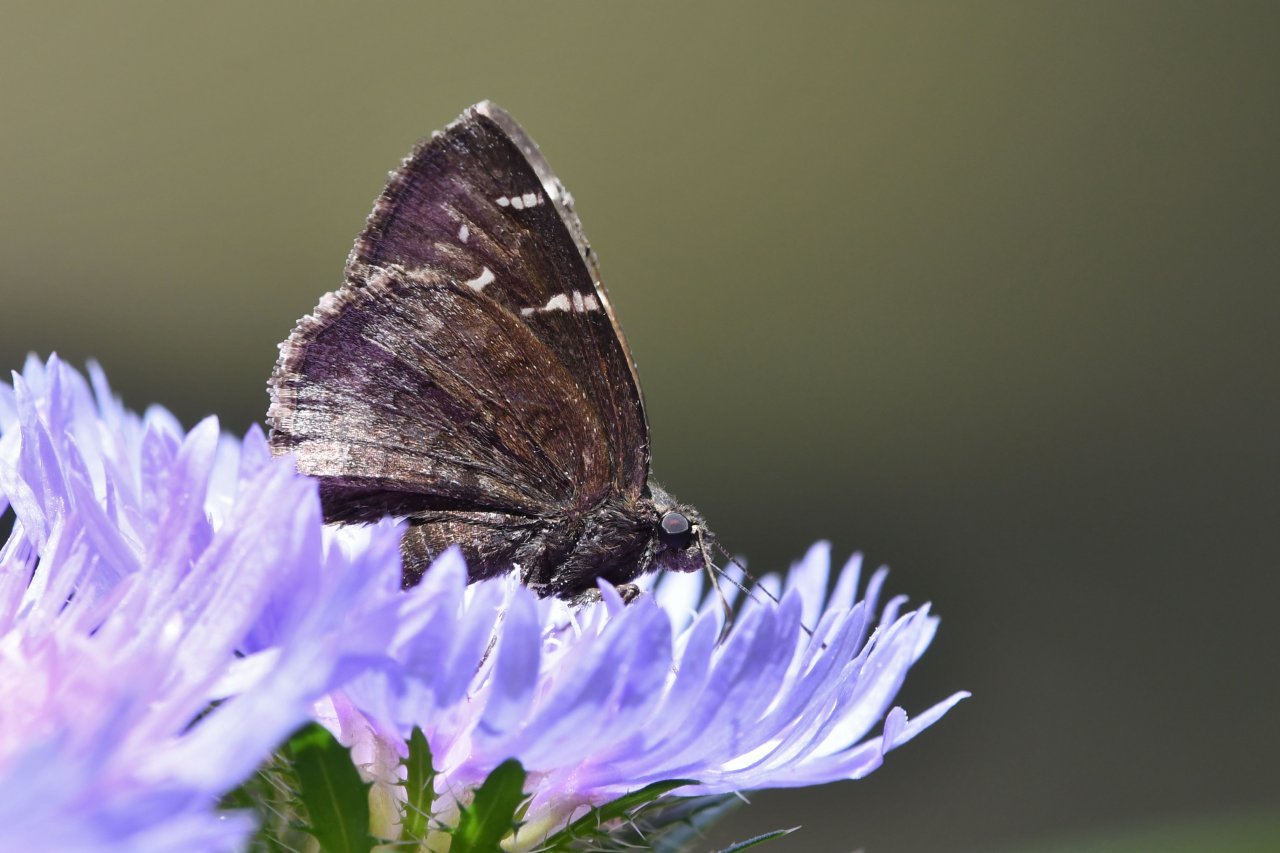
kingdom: Animalia
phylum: Arthropoda
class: Insecta
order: Lepidoptera
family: Hesperiidae
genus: Autochton
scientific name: Autochton
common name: Northern Cloudywing
